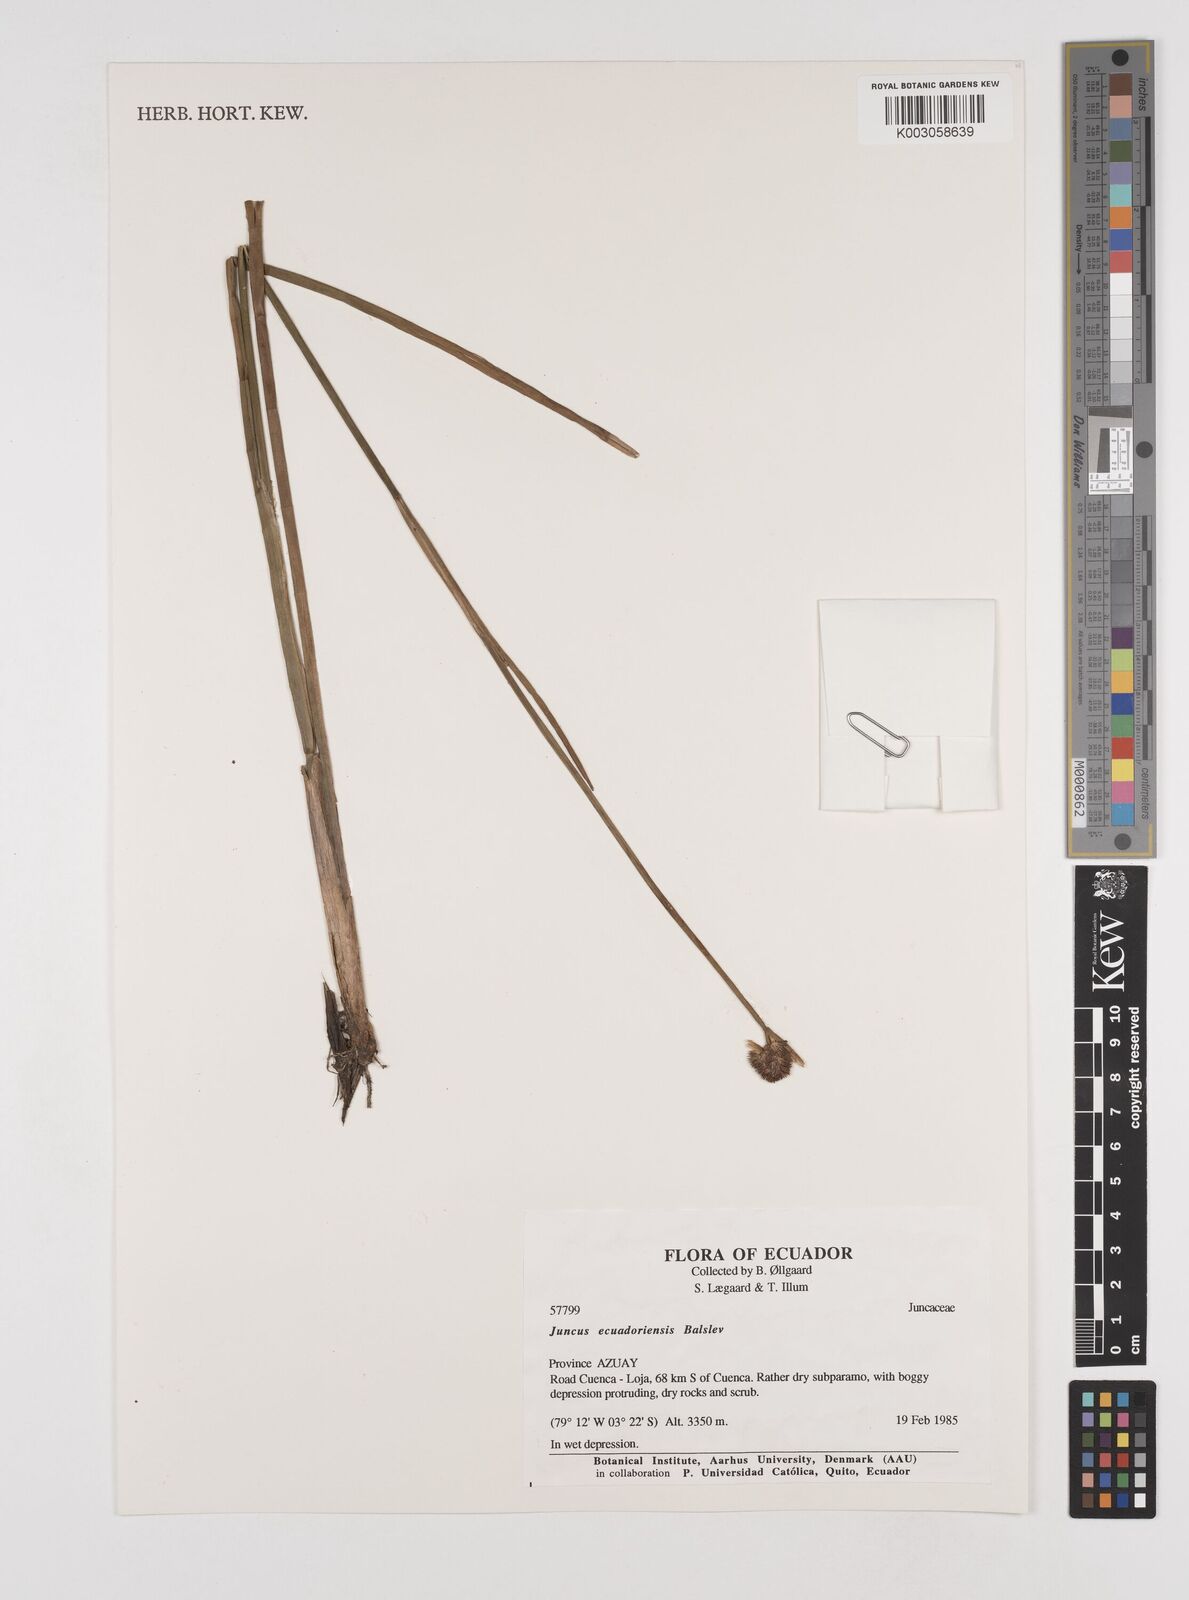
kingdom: Plantae
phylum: Tracheophyta
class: Liliopsida
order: Poales
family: Juncaceae
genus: Juncus
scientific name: Juncus ecuadoriensis
